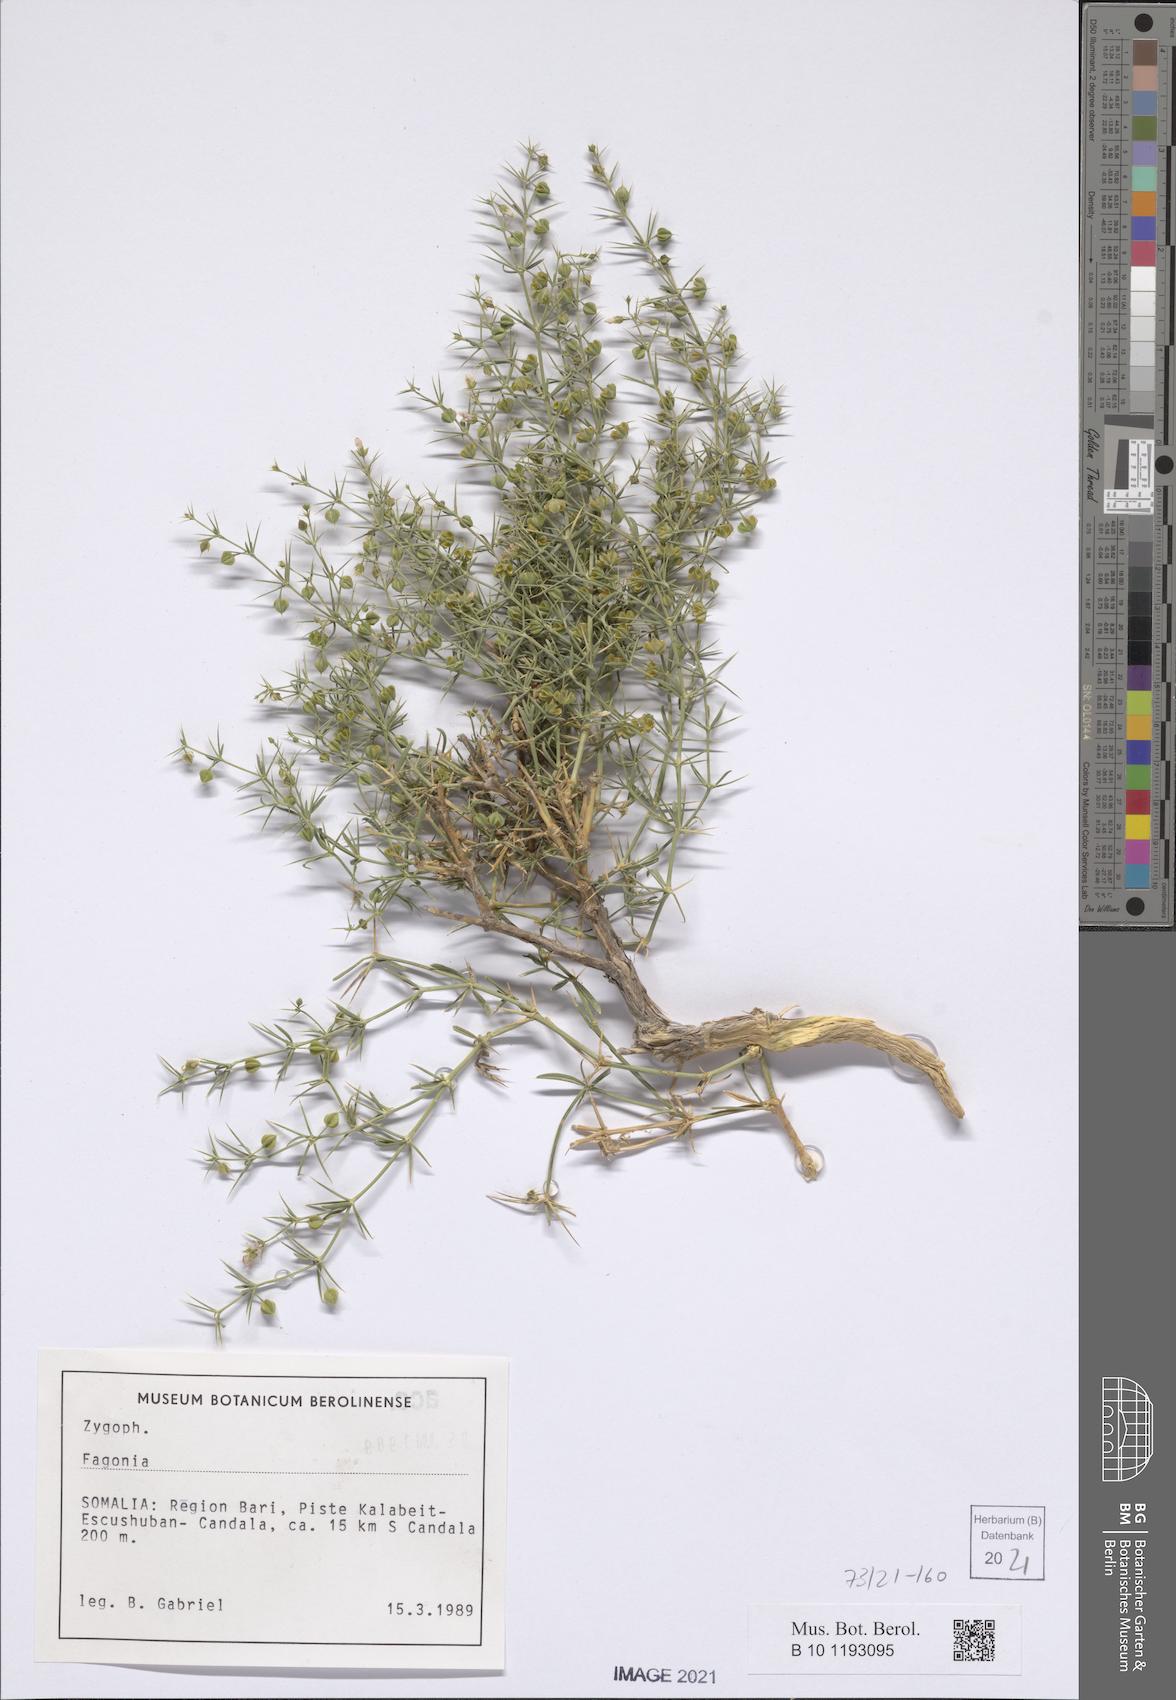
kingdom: Plantae
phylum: Tracheophyta
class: Magnoliopsida
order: Zygophyllales
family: Zygophyllaceae
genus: Fagonia
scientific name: Fagonia
